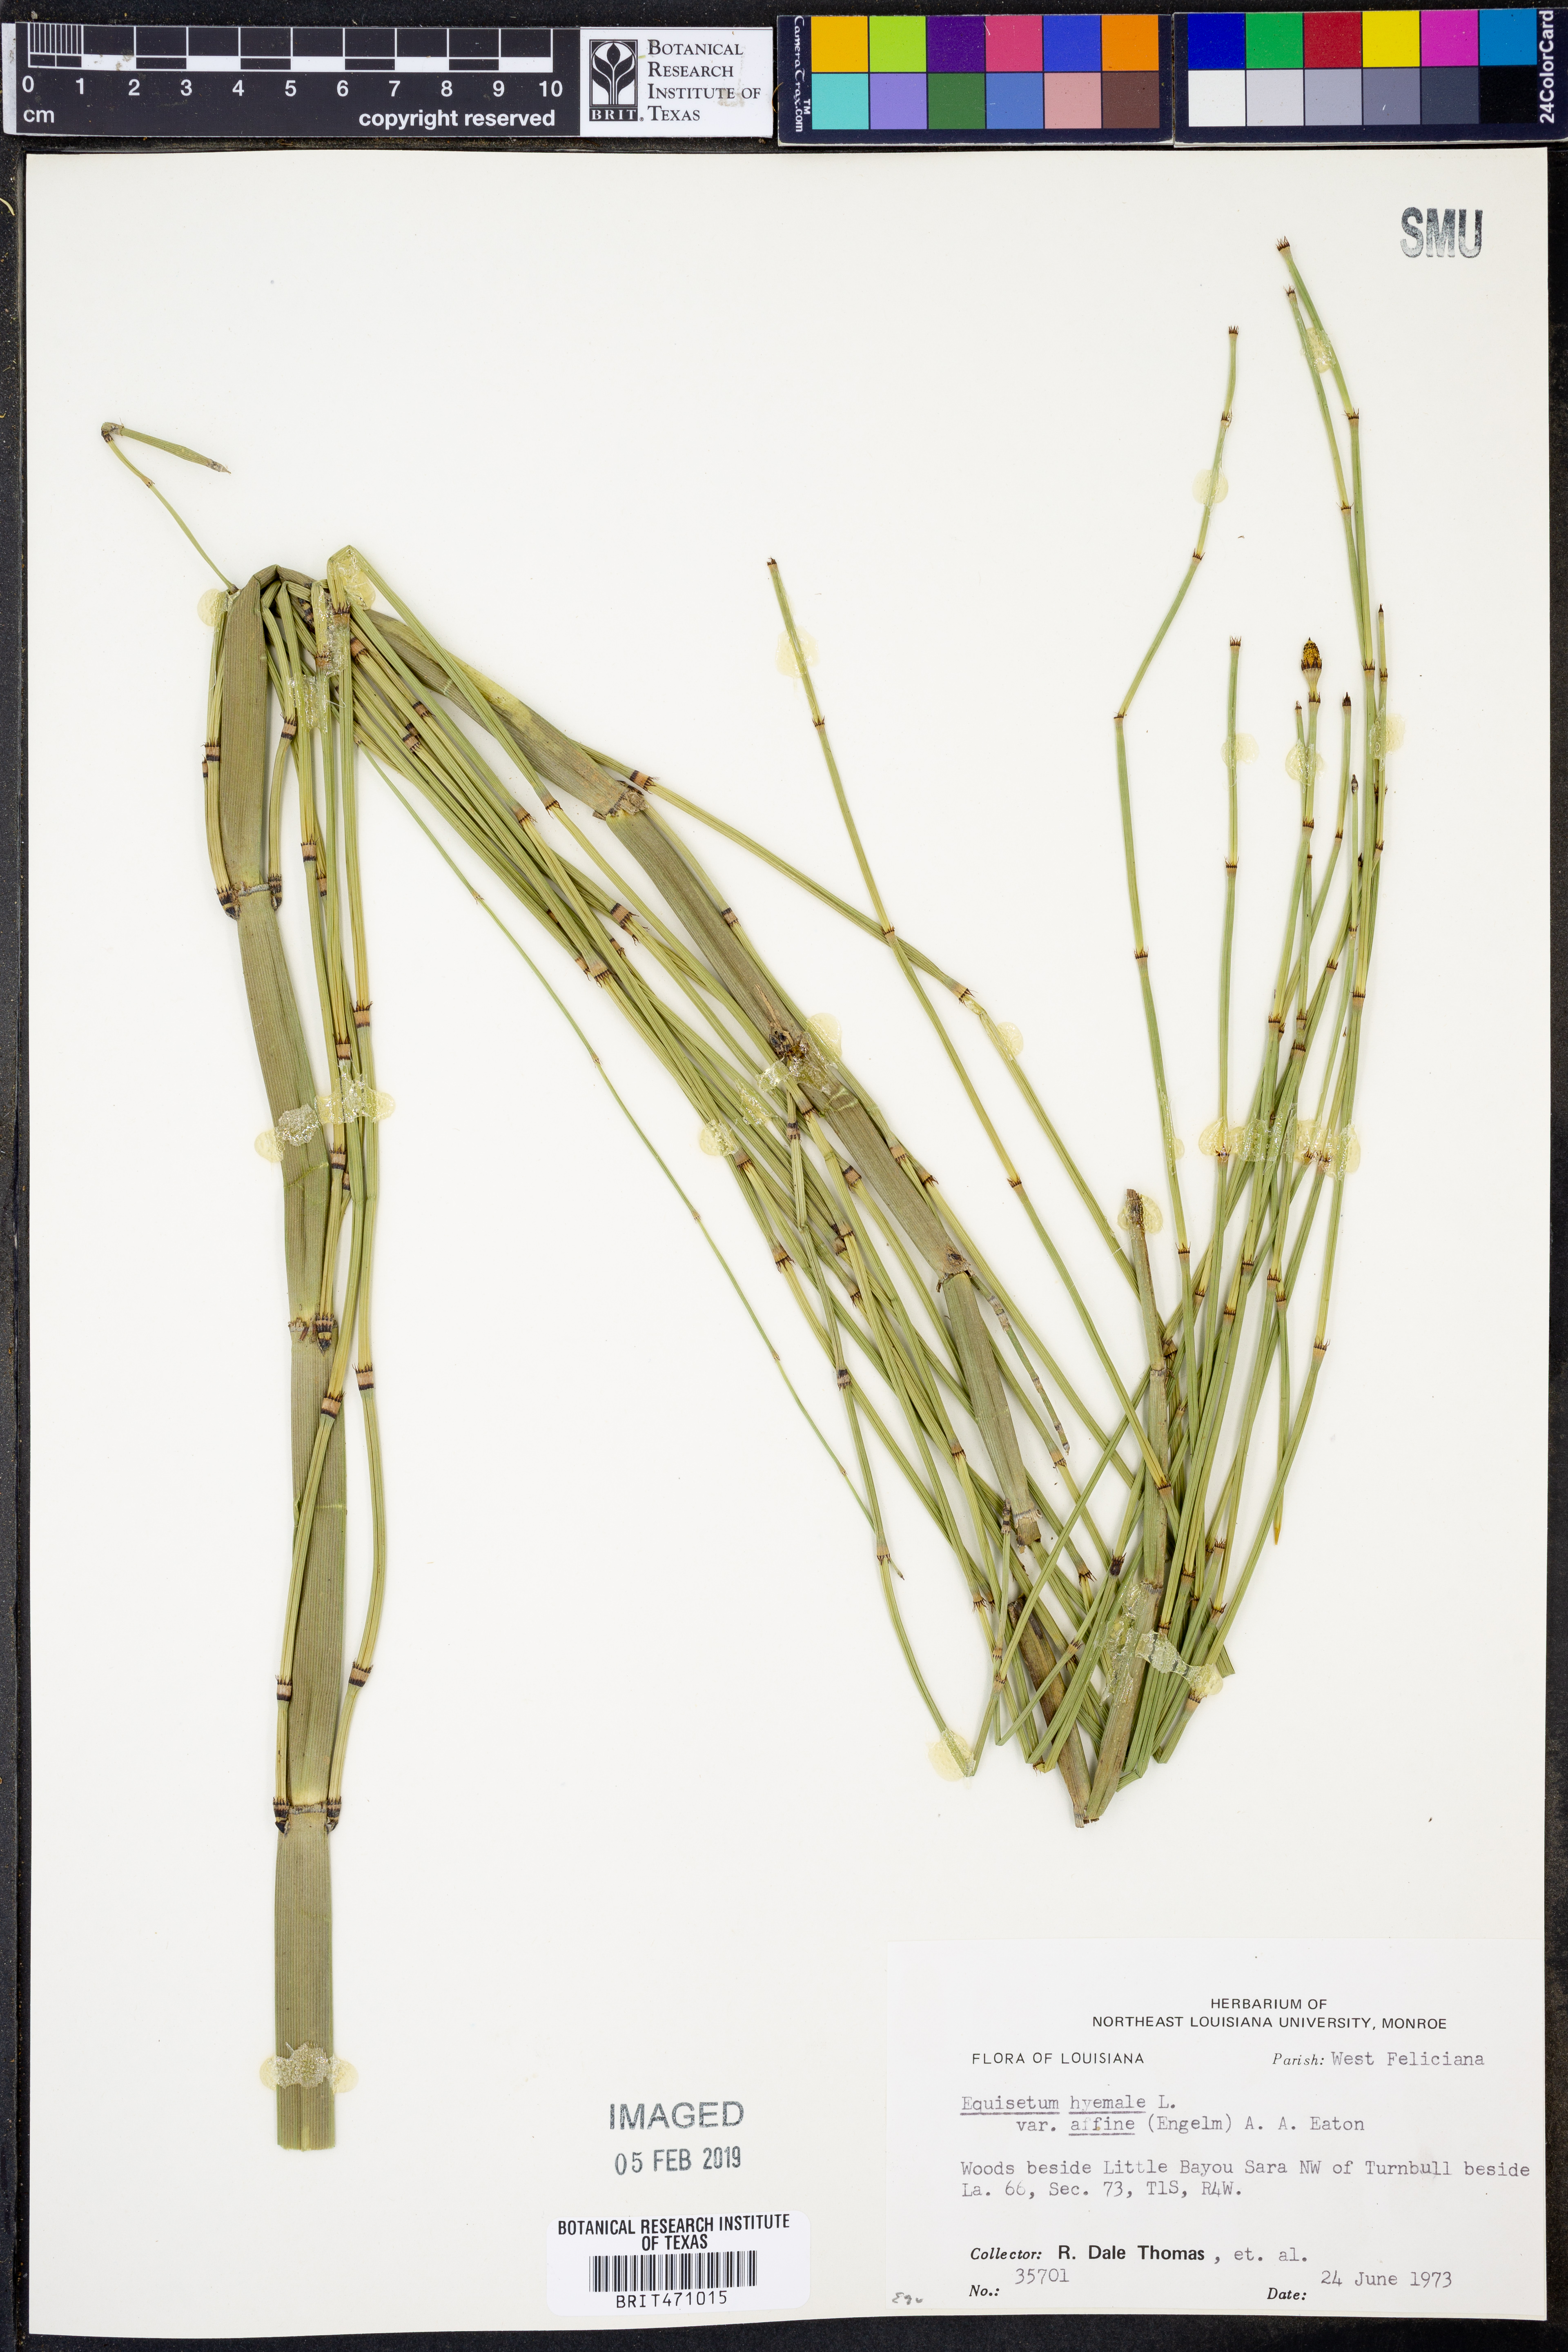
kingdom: Plantae
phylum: Tracheophyta
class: Polypodiopsida
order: Equisetales
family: Equisetaceae
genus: Equisetum
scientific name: Equisetum praealtum
